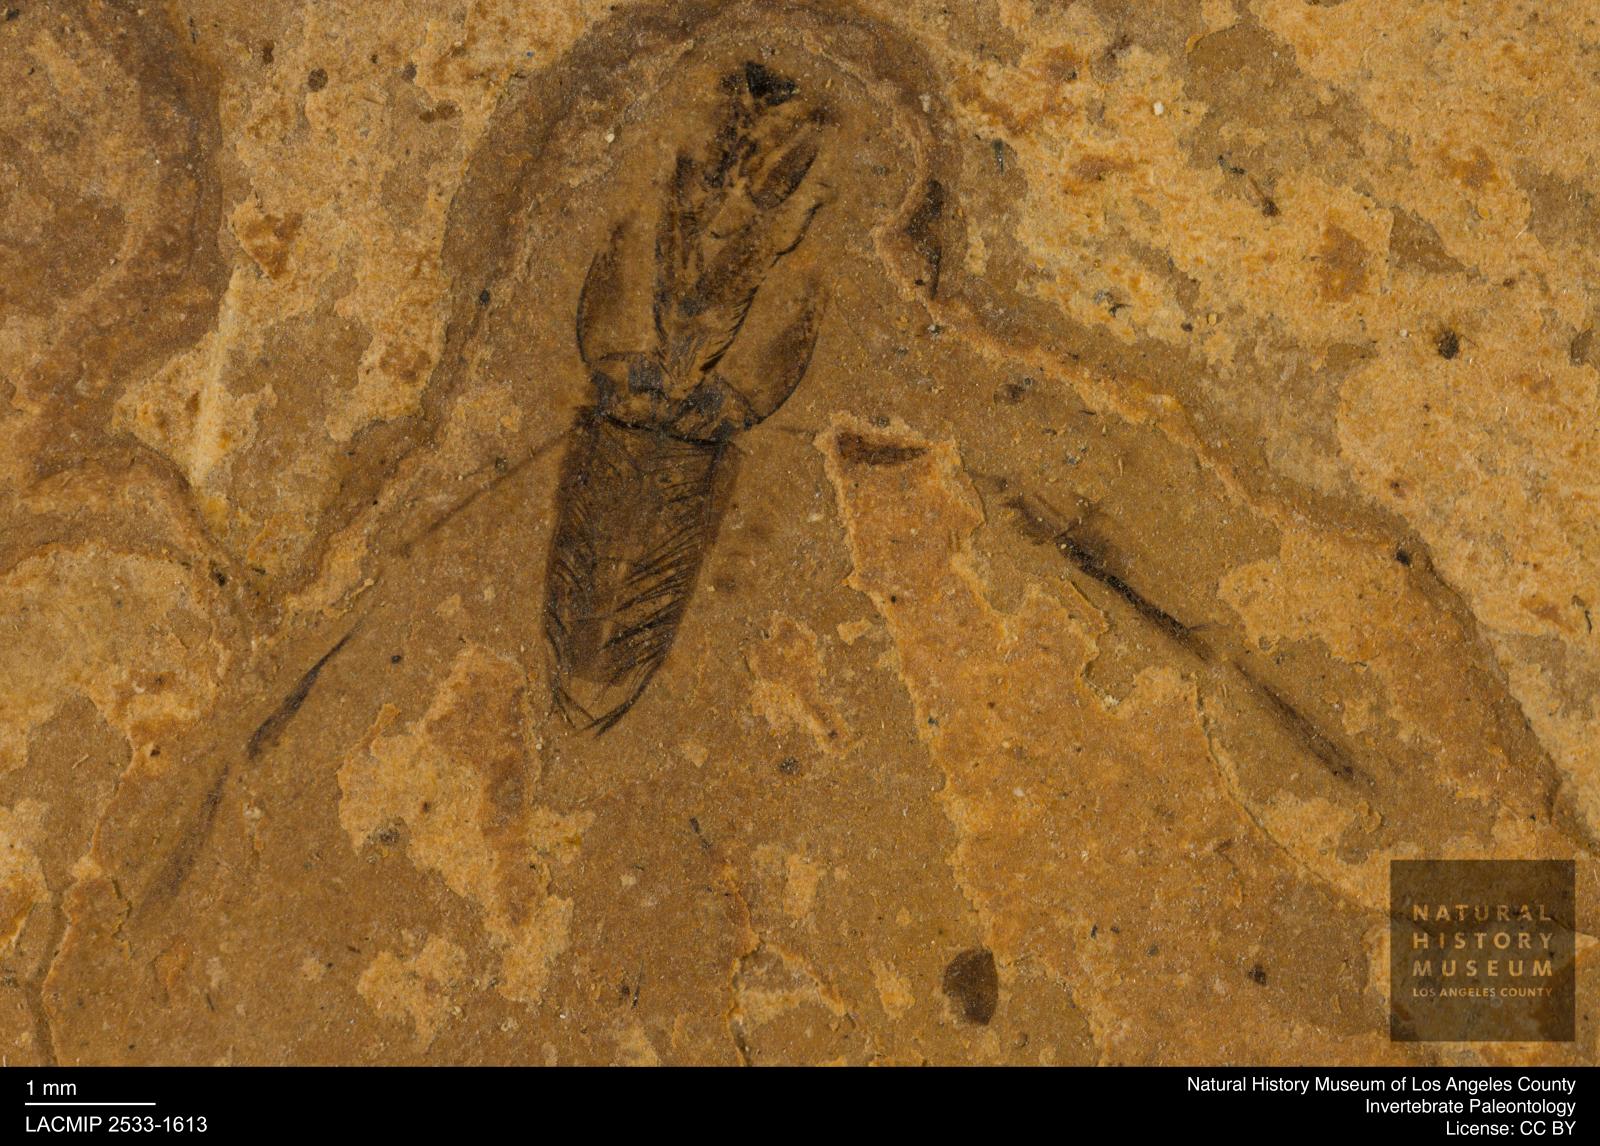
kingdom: Animalia
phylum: Arthropoda
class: Insecta
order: Hemiptera
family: Notonectidae
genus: Notonecta
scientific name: Notonecta
